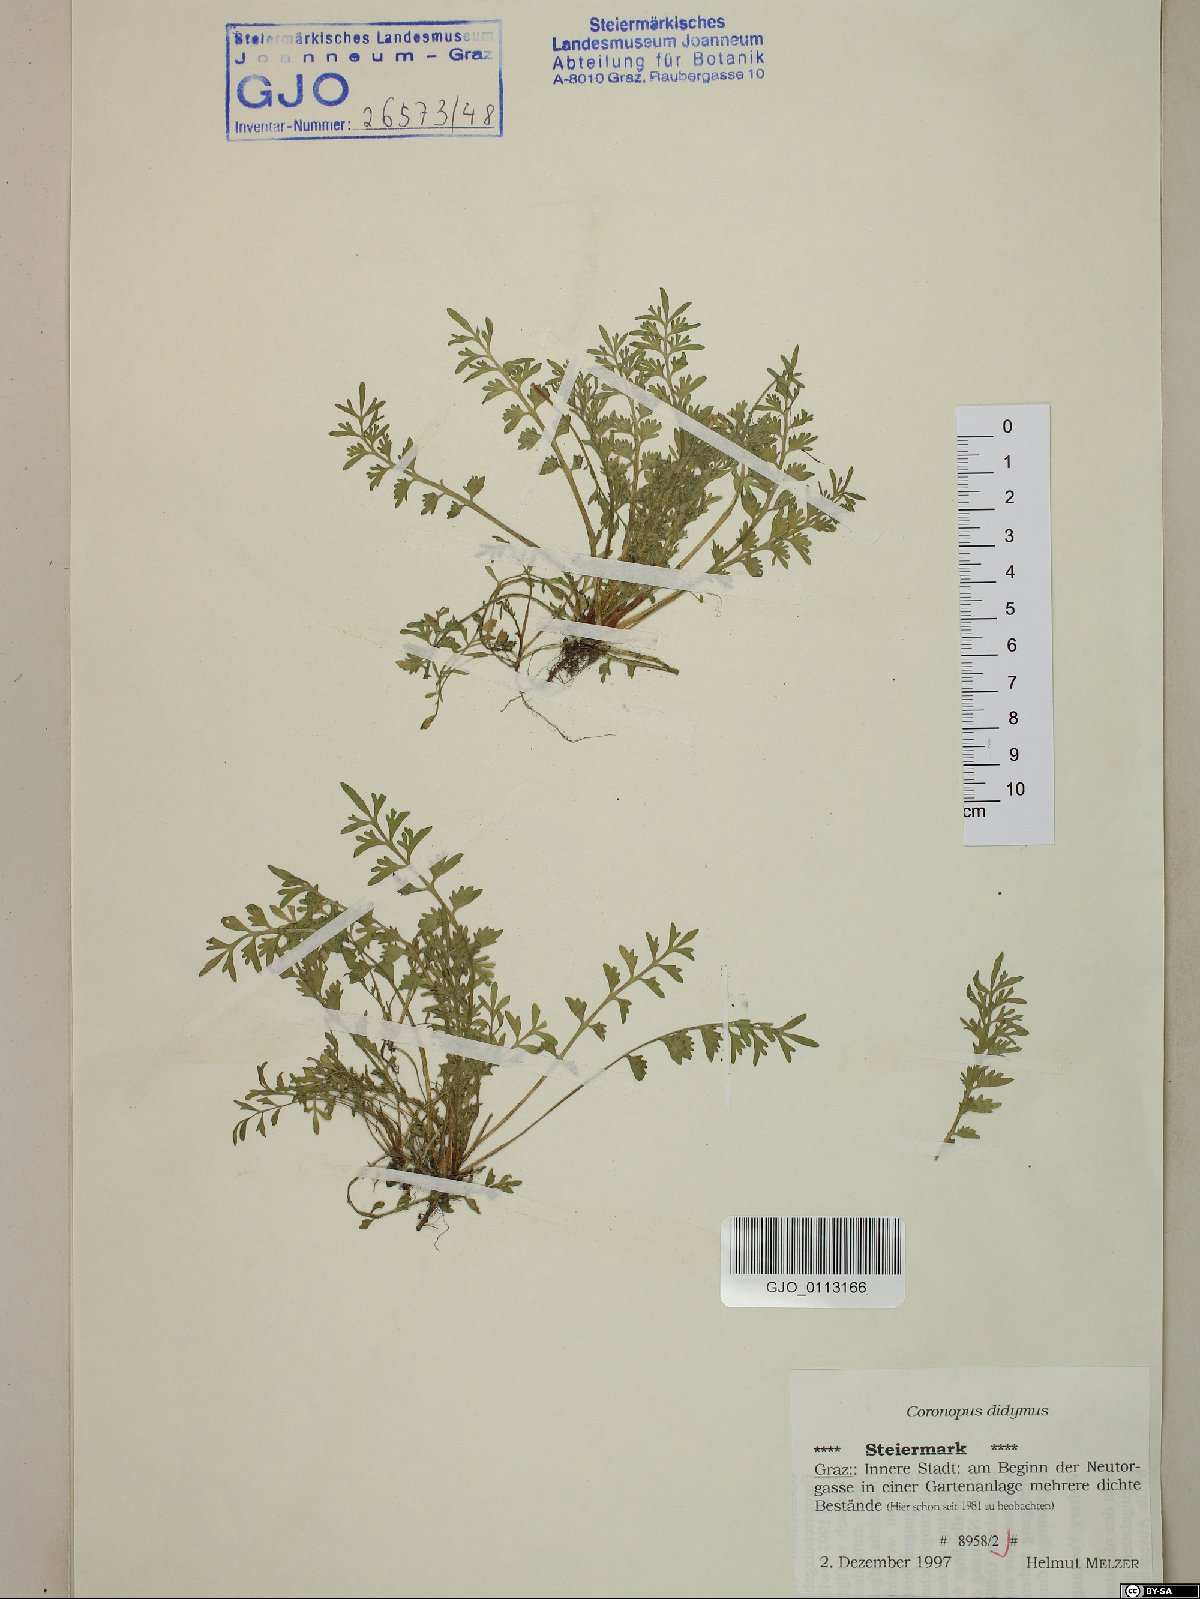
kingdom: Plantae
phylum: Tracheophyta
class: Magnoliopsida
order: Brassicales
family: Brassicaceae
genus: Lepidium
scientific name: Lepidium didymum
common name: Lesser swinecress
